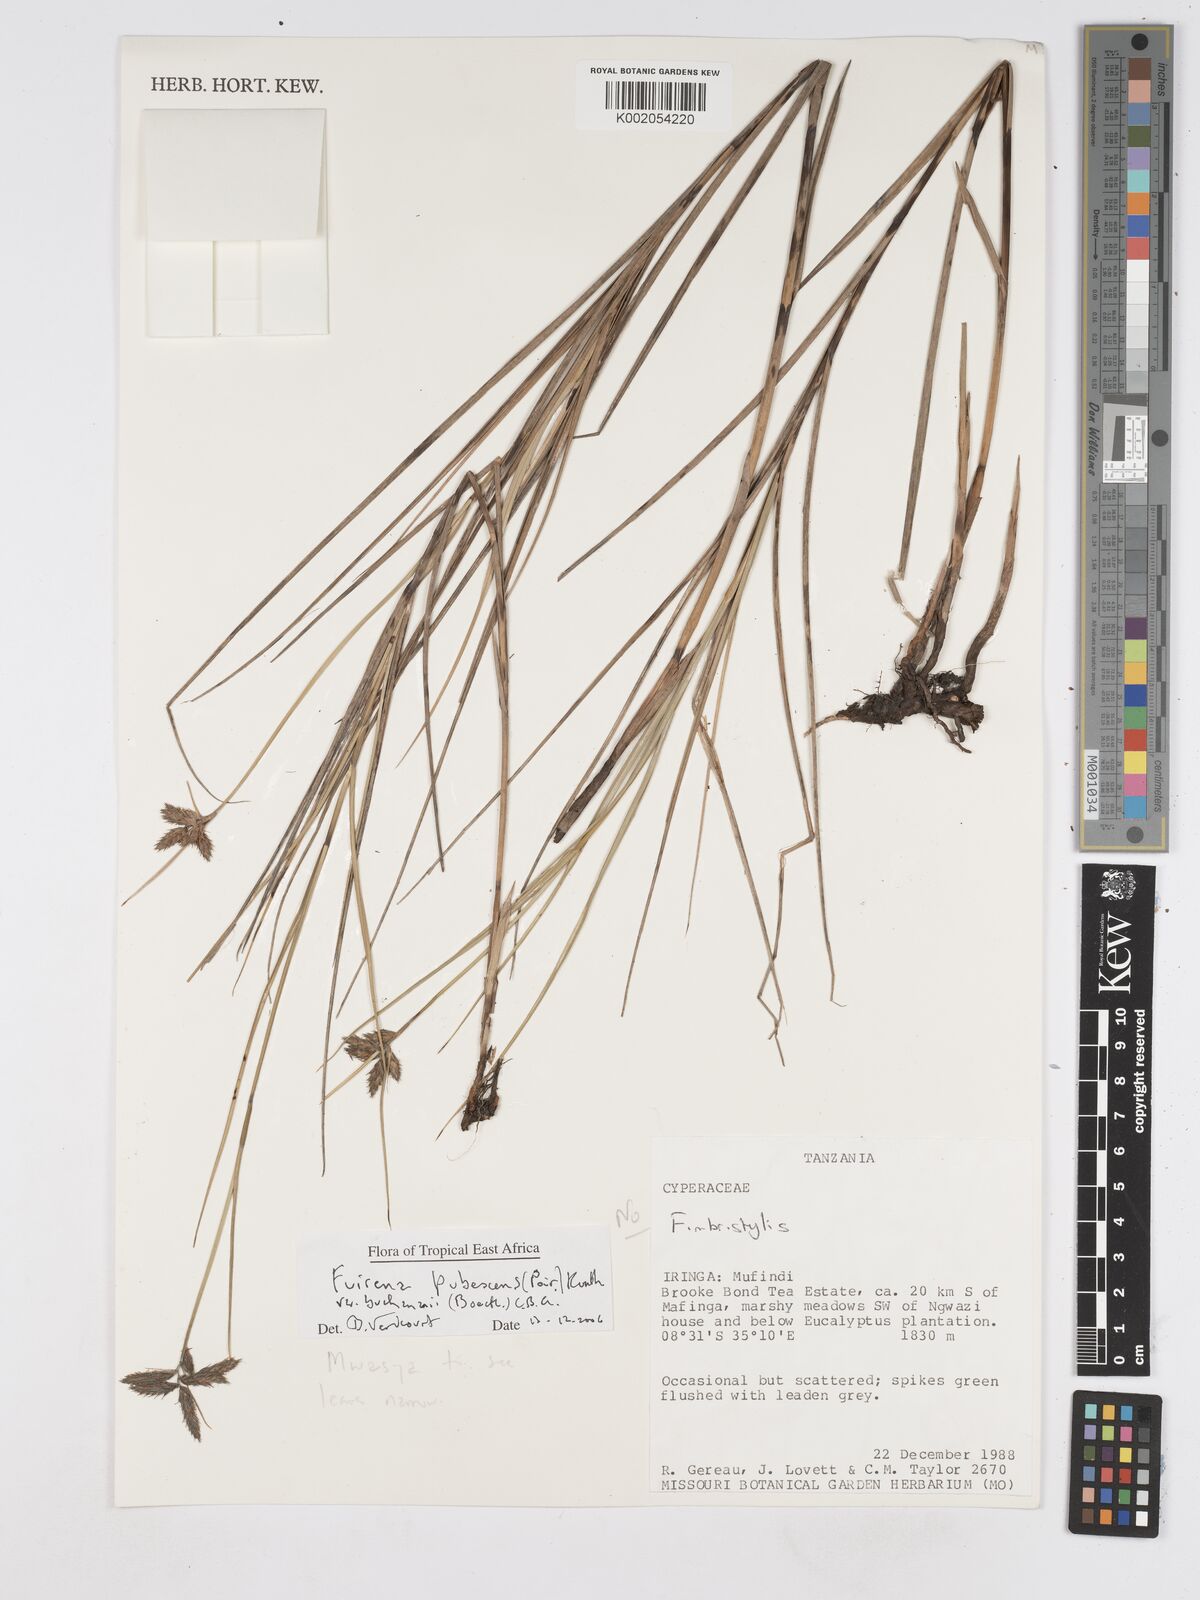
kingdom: Plantae
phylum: Tracheophyta
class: Liliopsida
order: Poales
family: Cyperaceae
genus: Fuirena
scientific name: Fuirena welwitschii
